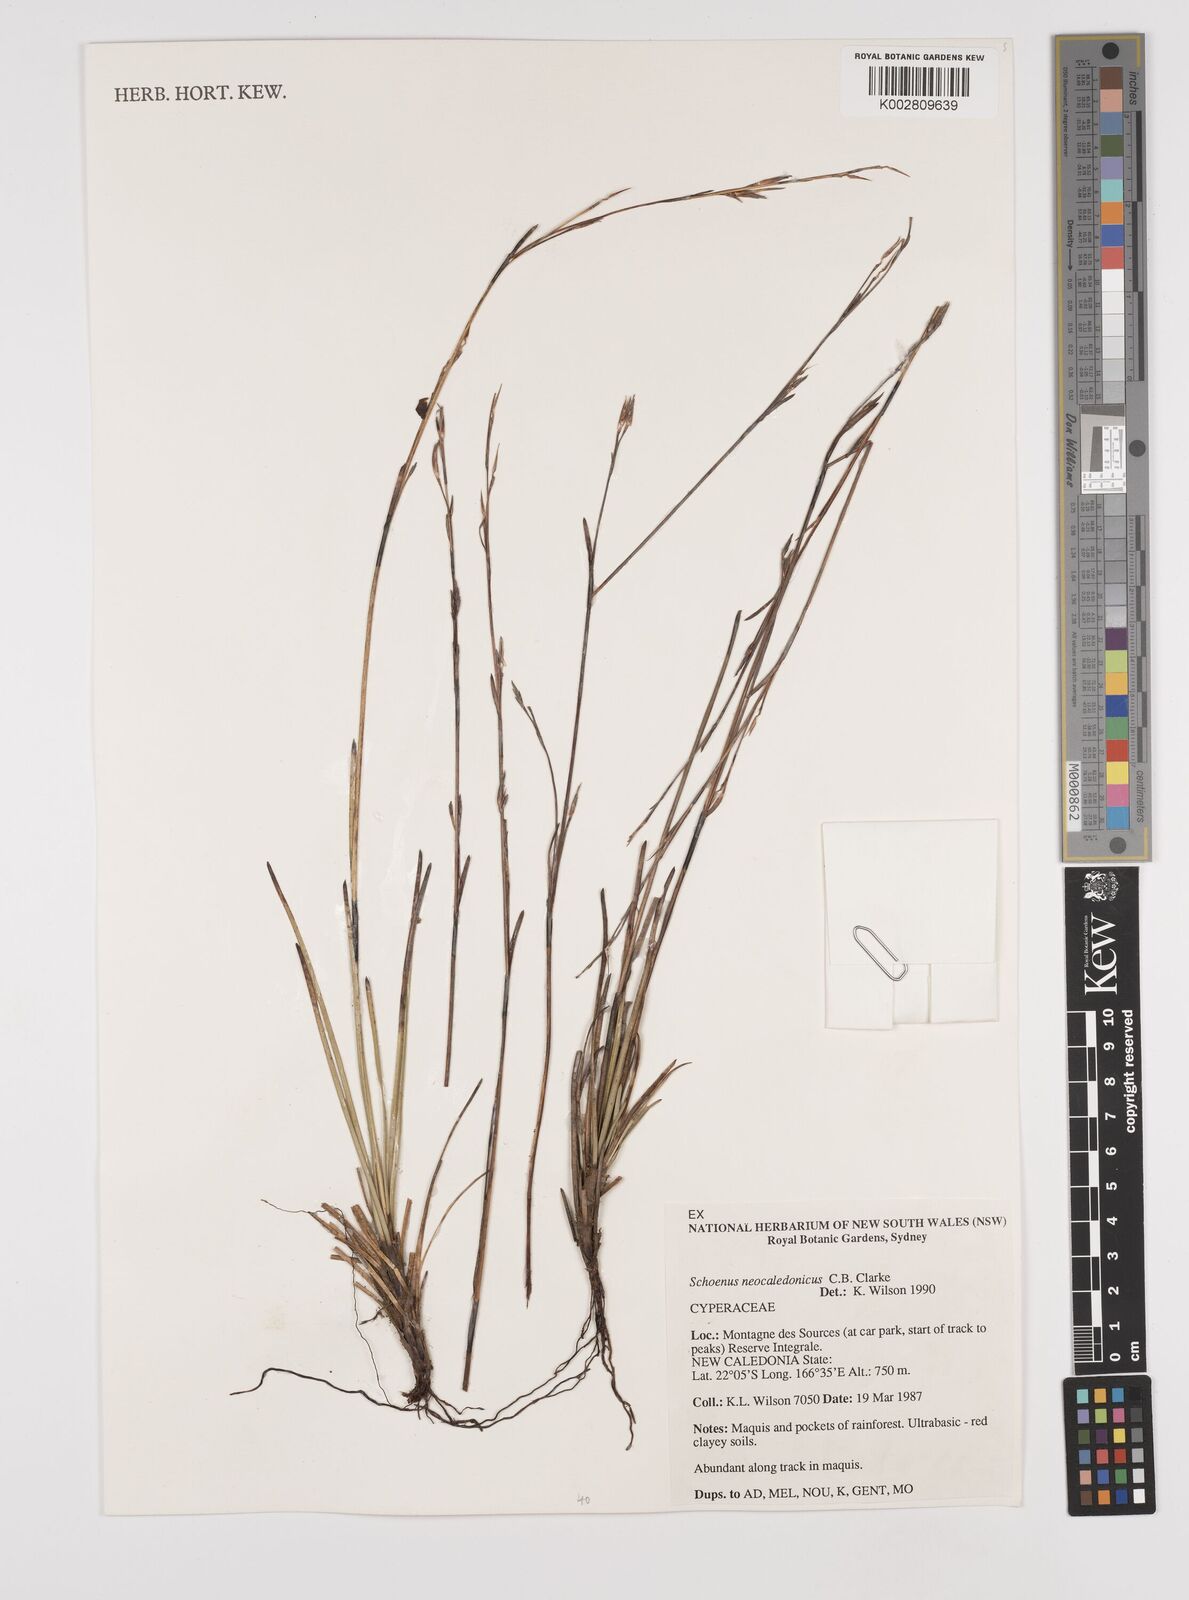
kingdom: Plantae
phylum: Tracheophyta
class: Liliopsida
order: Poales
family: Cyperaceae
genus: Schoenus
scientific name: Schoenus neocaledonicus
